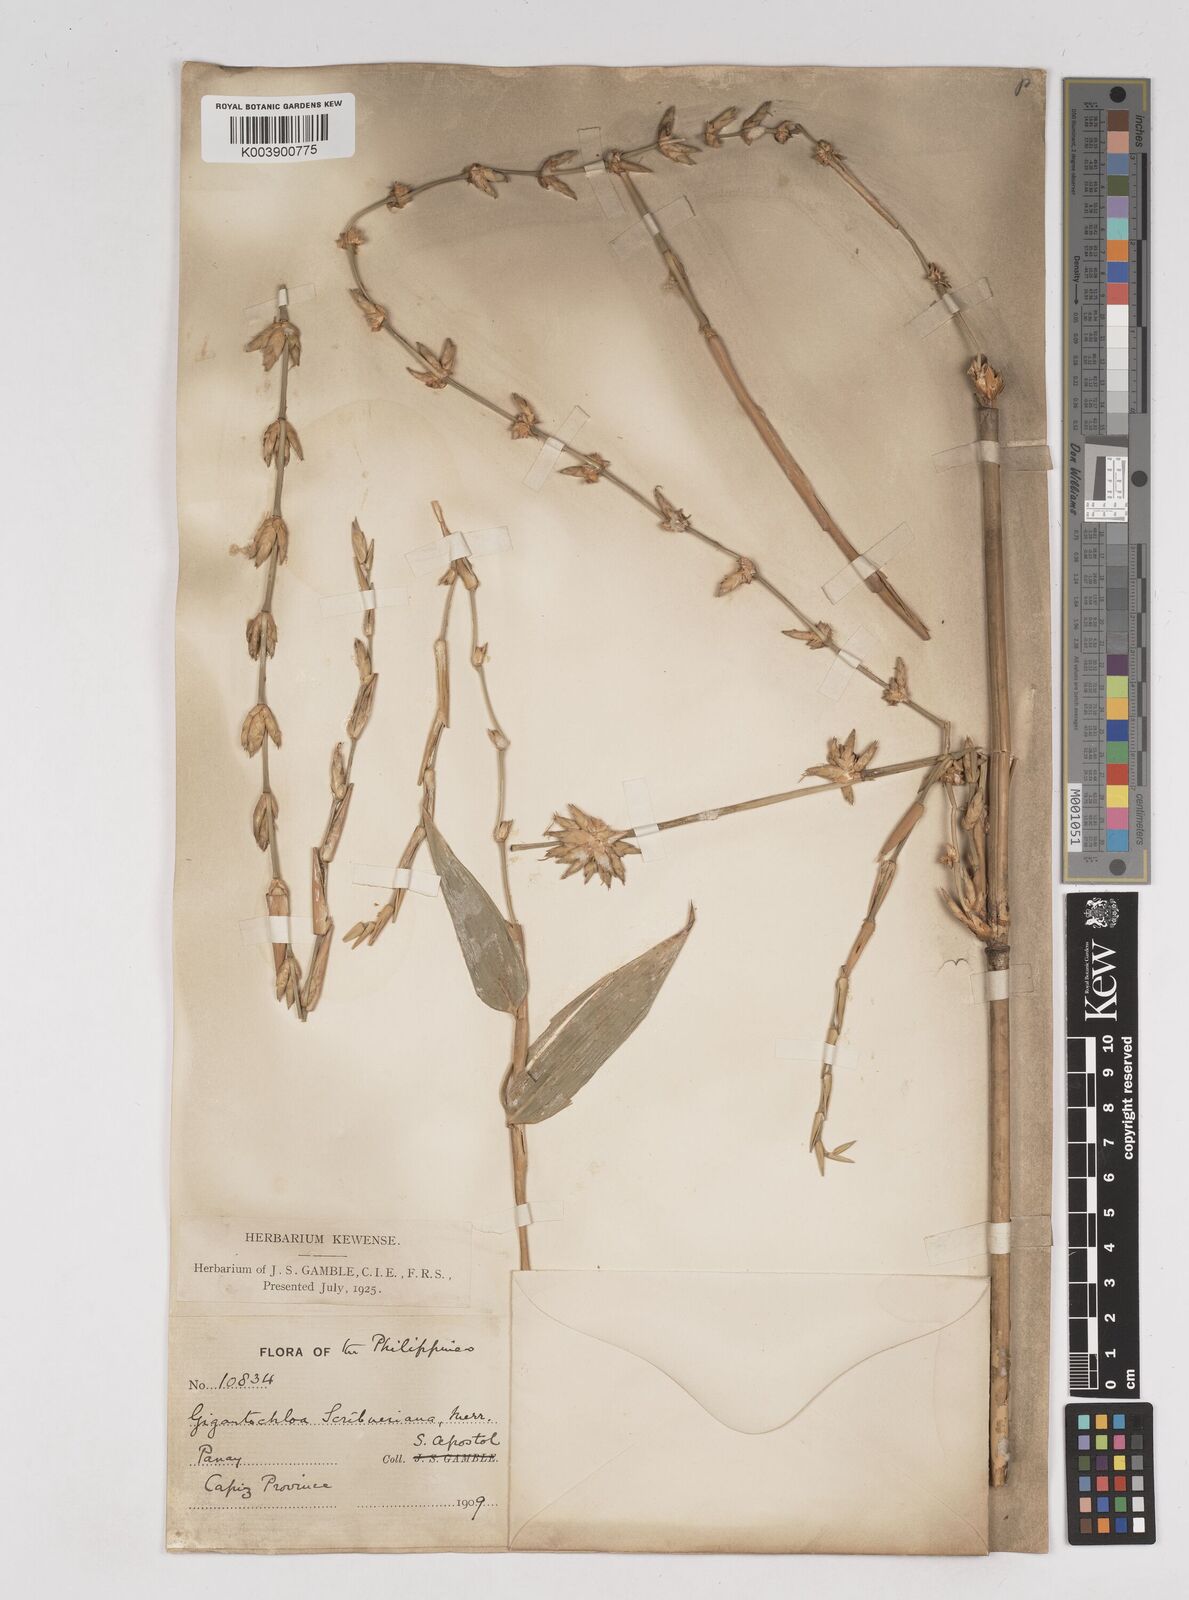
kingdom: Plantae
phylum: Tracheophyta
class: Liliopsida
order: Poales
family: Poaceae
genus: Gigantochloa
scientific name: Gigantochloa levis
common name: Smooth-shoot gigantochloa
